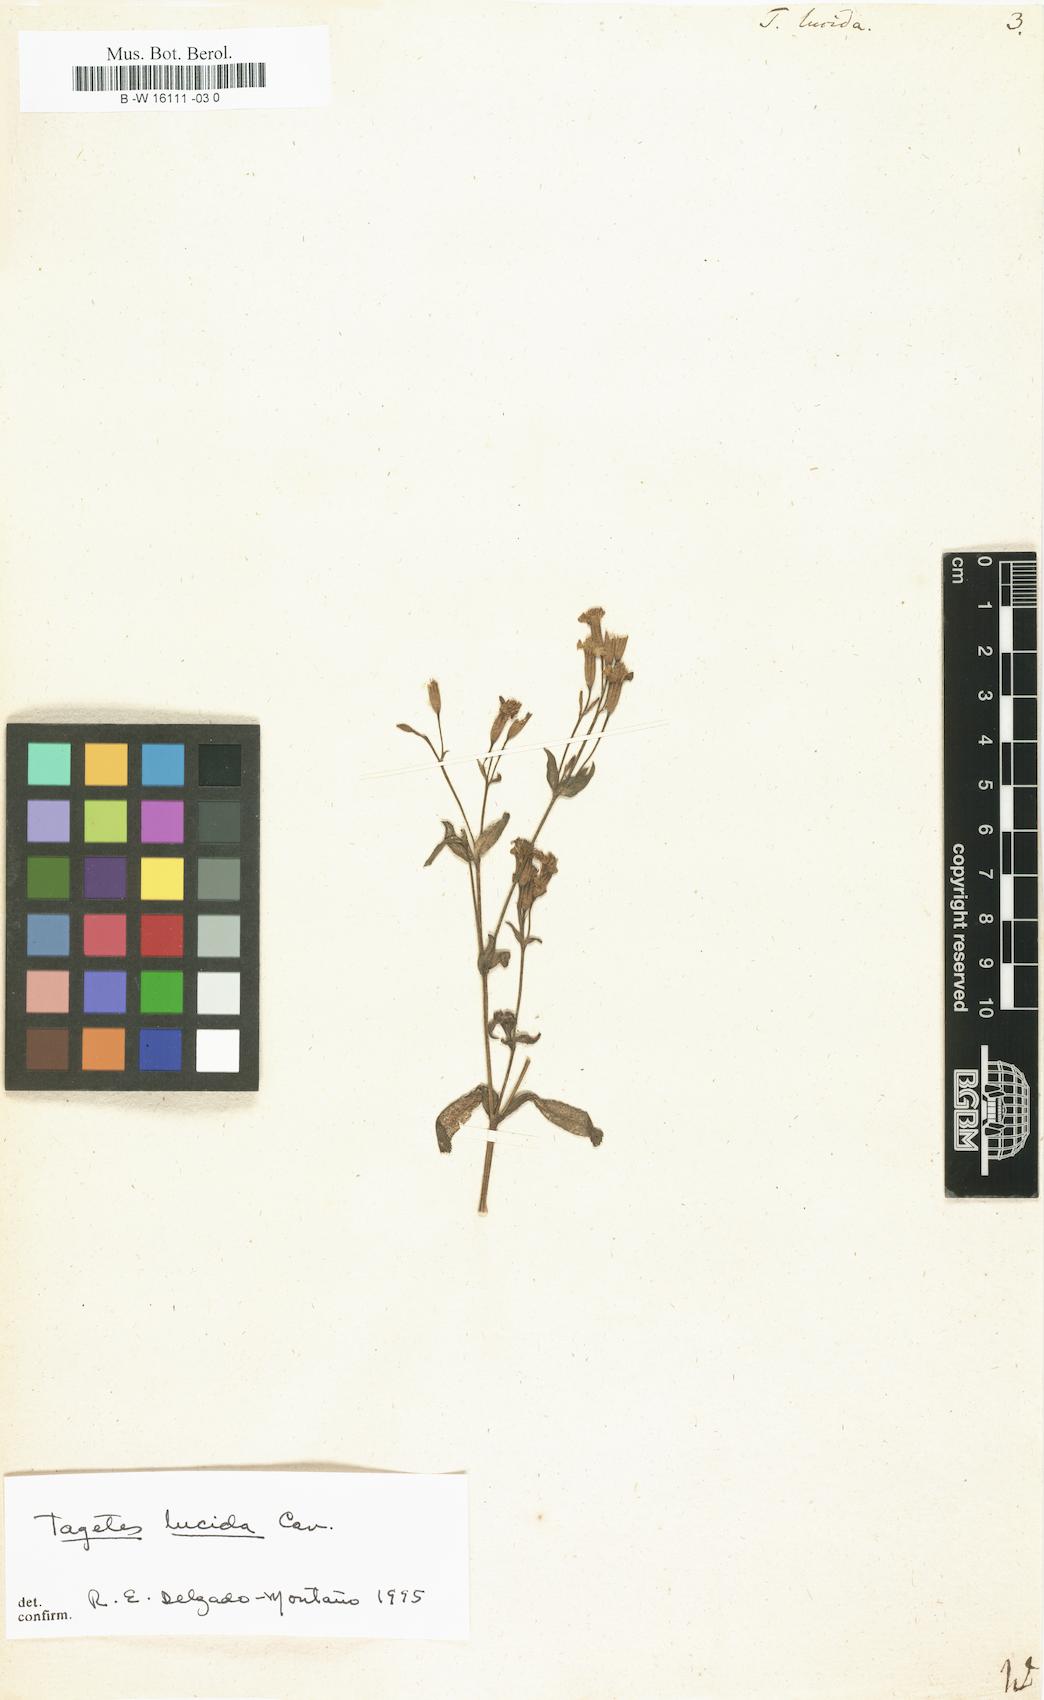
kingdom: Plantae
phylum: Tracheophyta
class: Magnoliopsida
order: Asterales
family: Asteraceae
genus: Tagetes
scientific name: Tagetes lucida
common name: Sweetscented marigold
